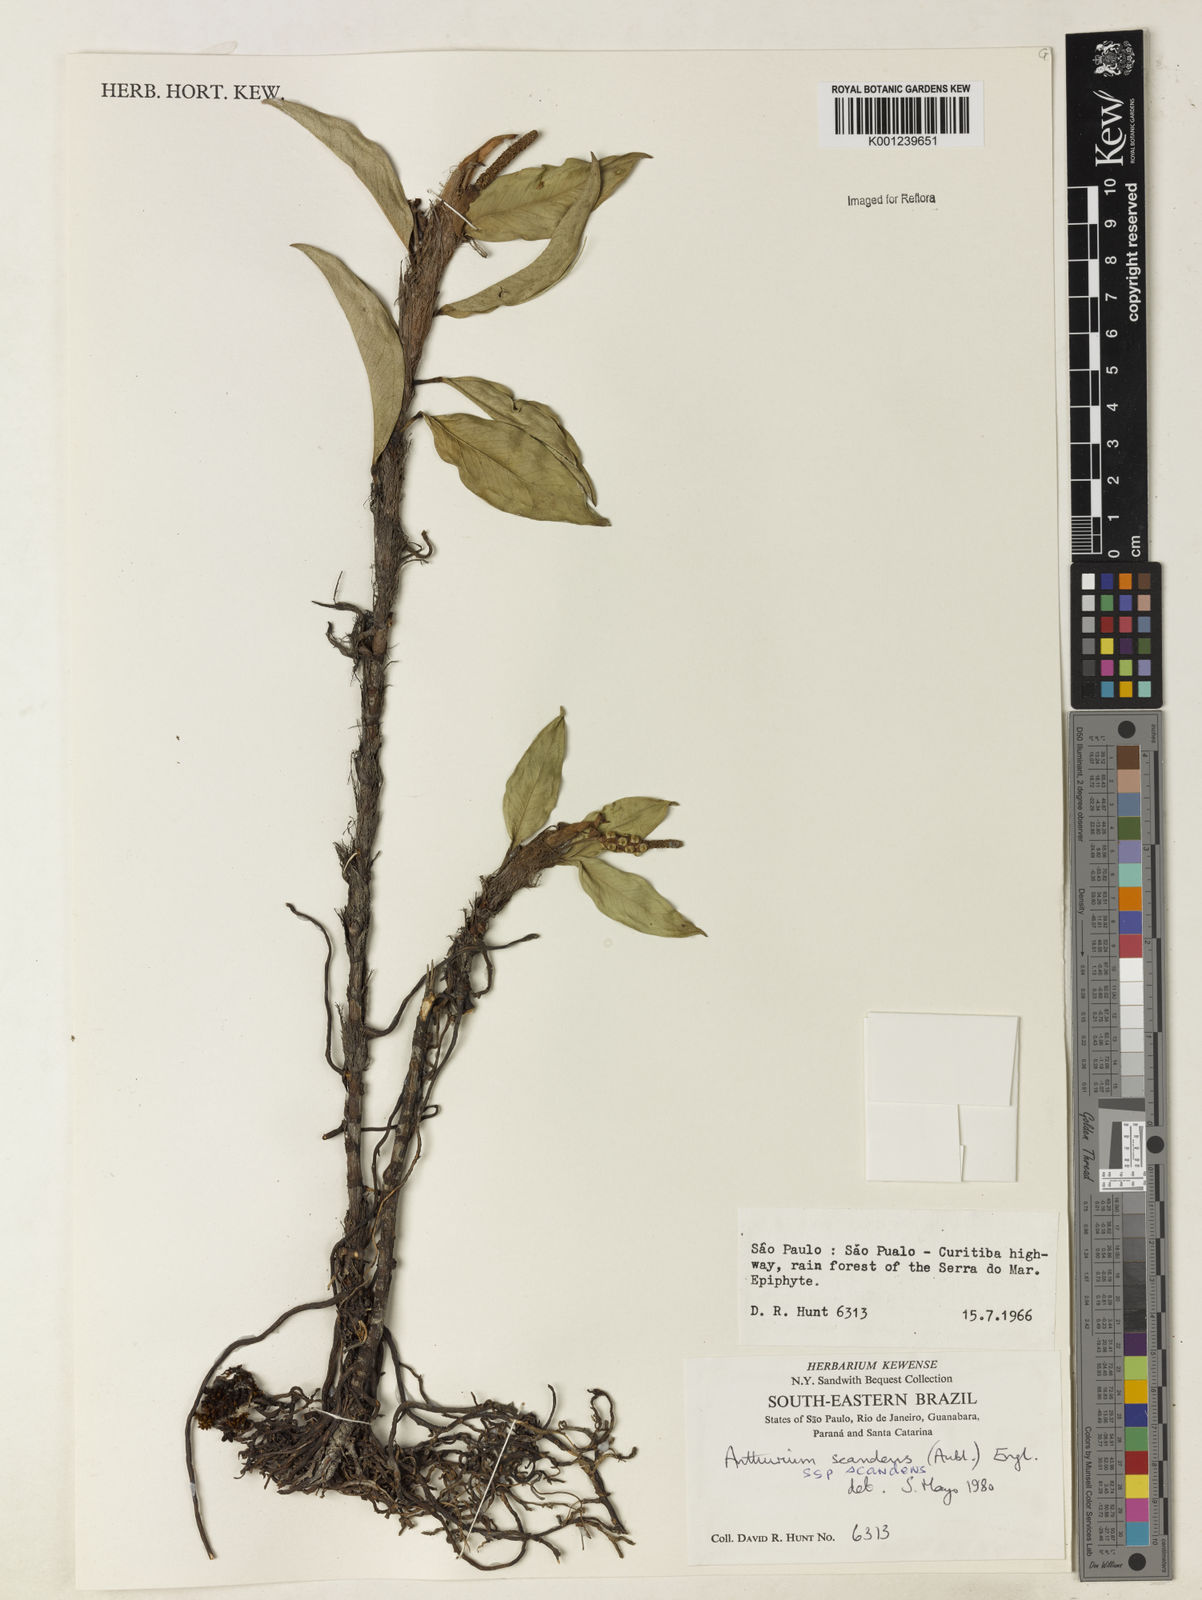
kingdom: Plantae
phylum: Tracheophyta
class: Liliopsida
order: Alismatales
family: Araceae
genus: Anthurium
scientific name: Anthurium scandens
